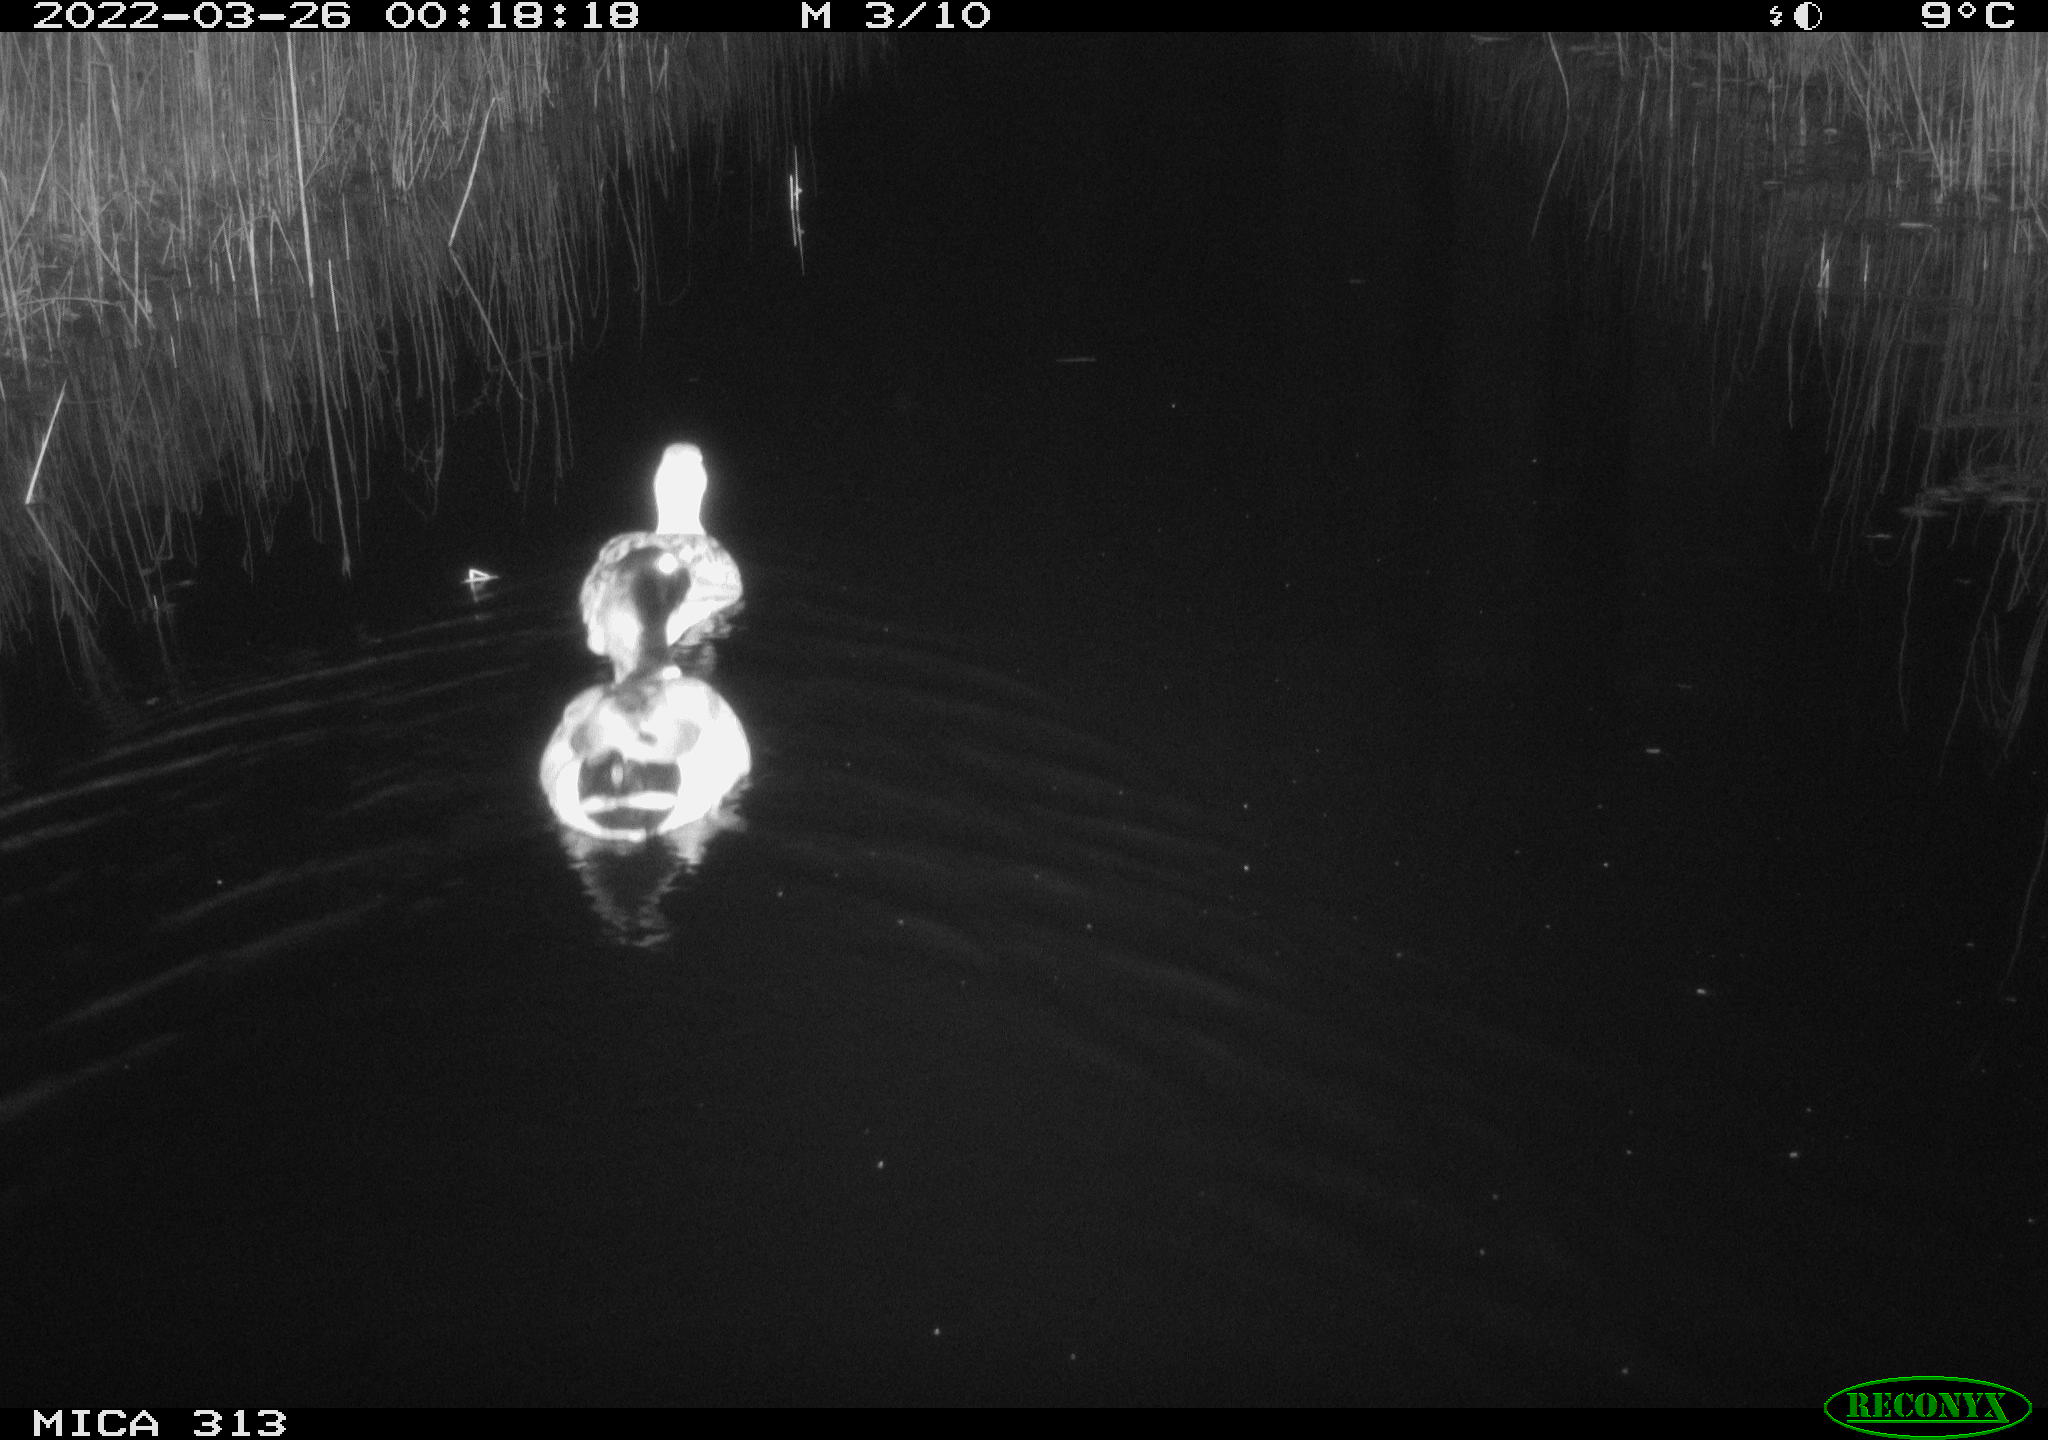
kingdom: Animalia
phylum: Chordata
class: Aves
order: Anseriformes
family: Anatidae
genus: Anas
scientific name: Anas platyrhynchos
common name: Mallard
